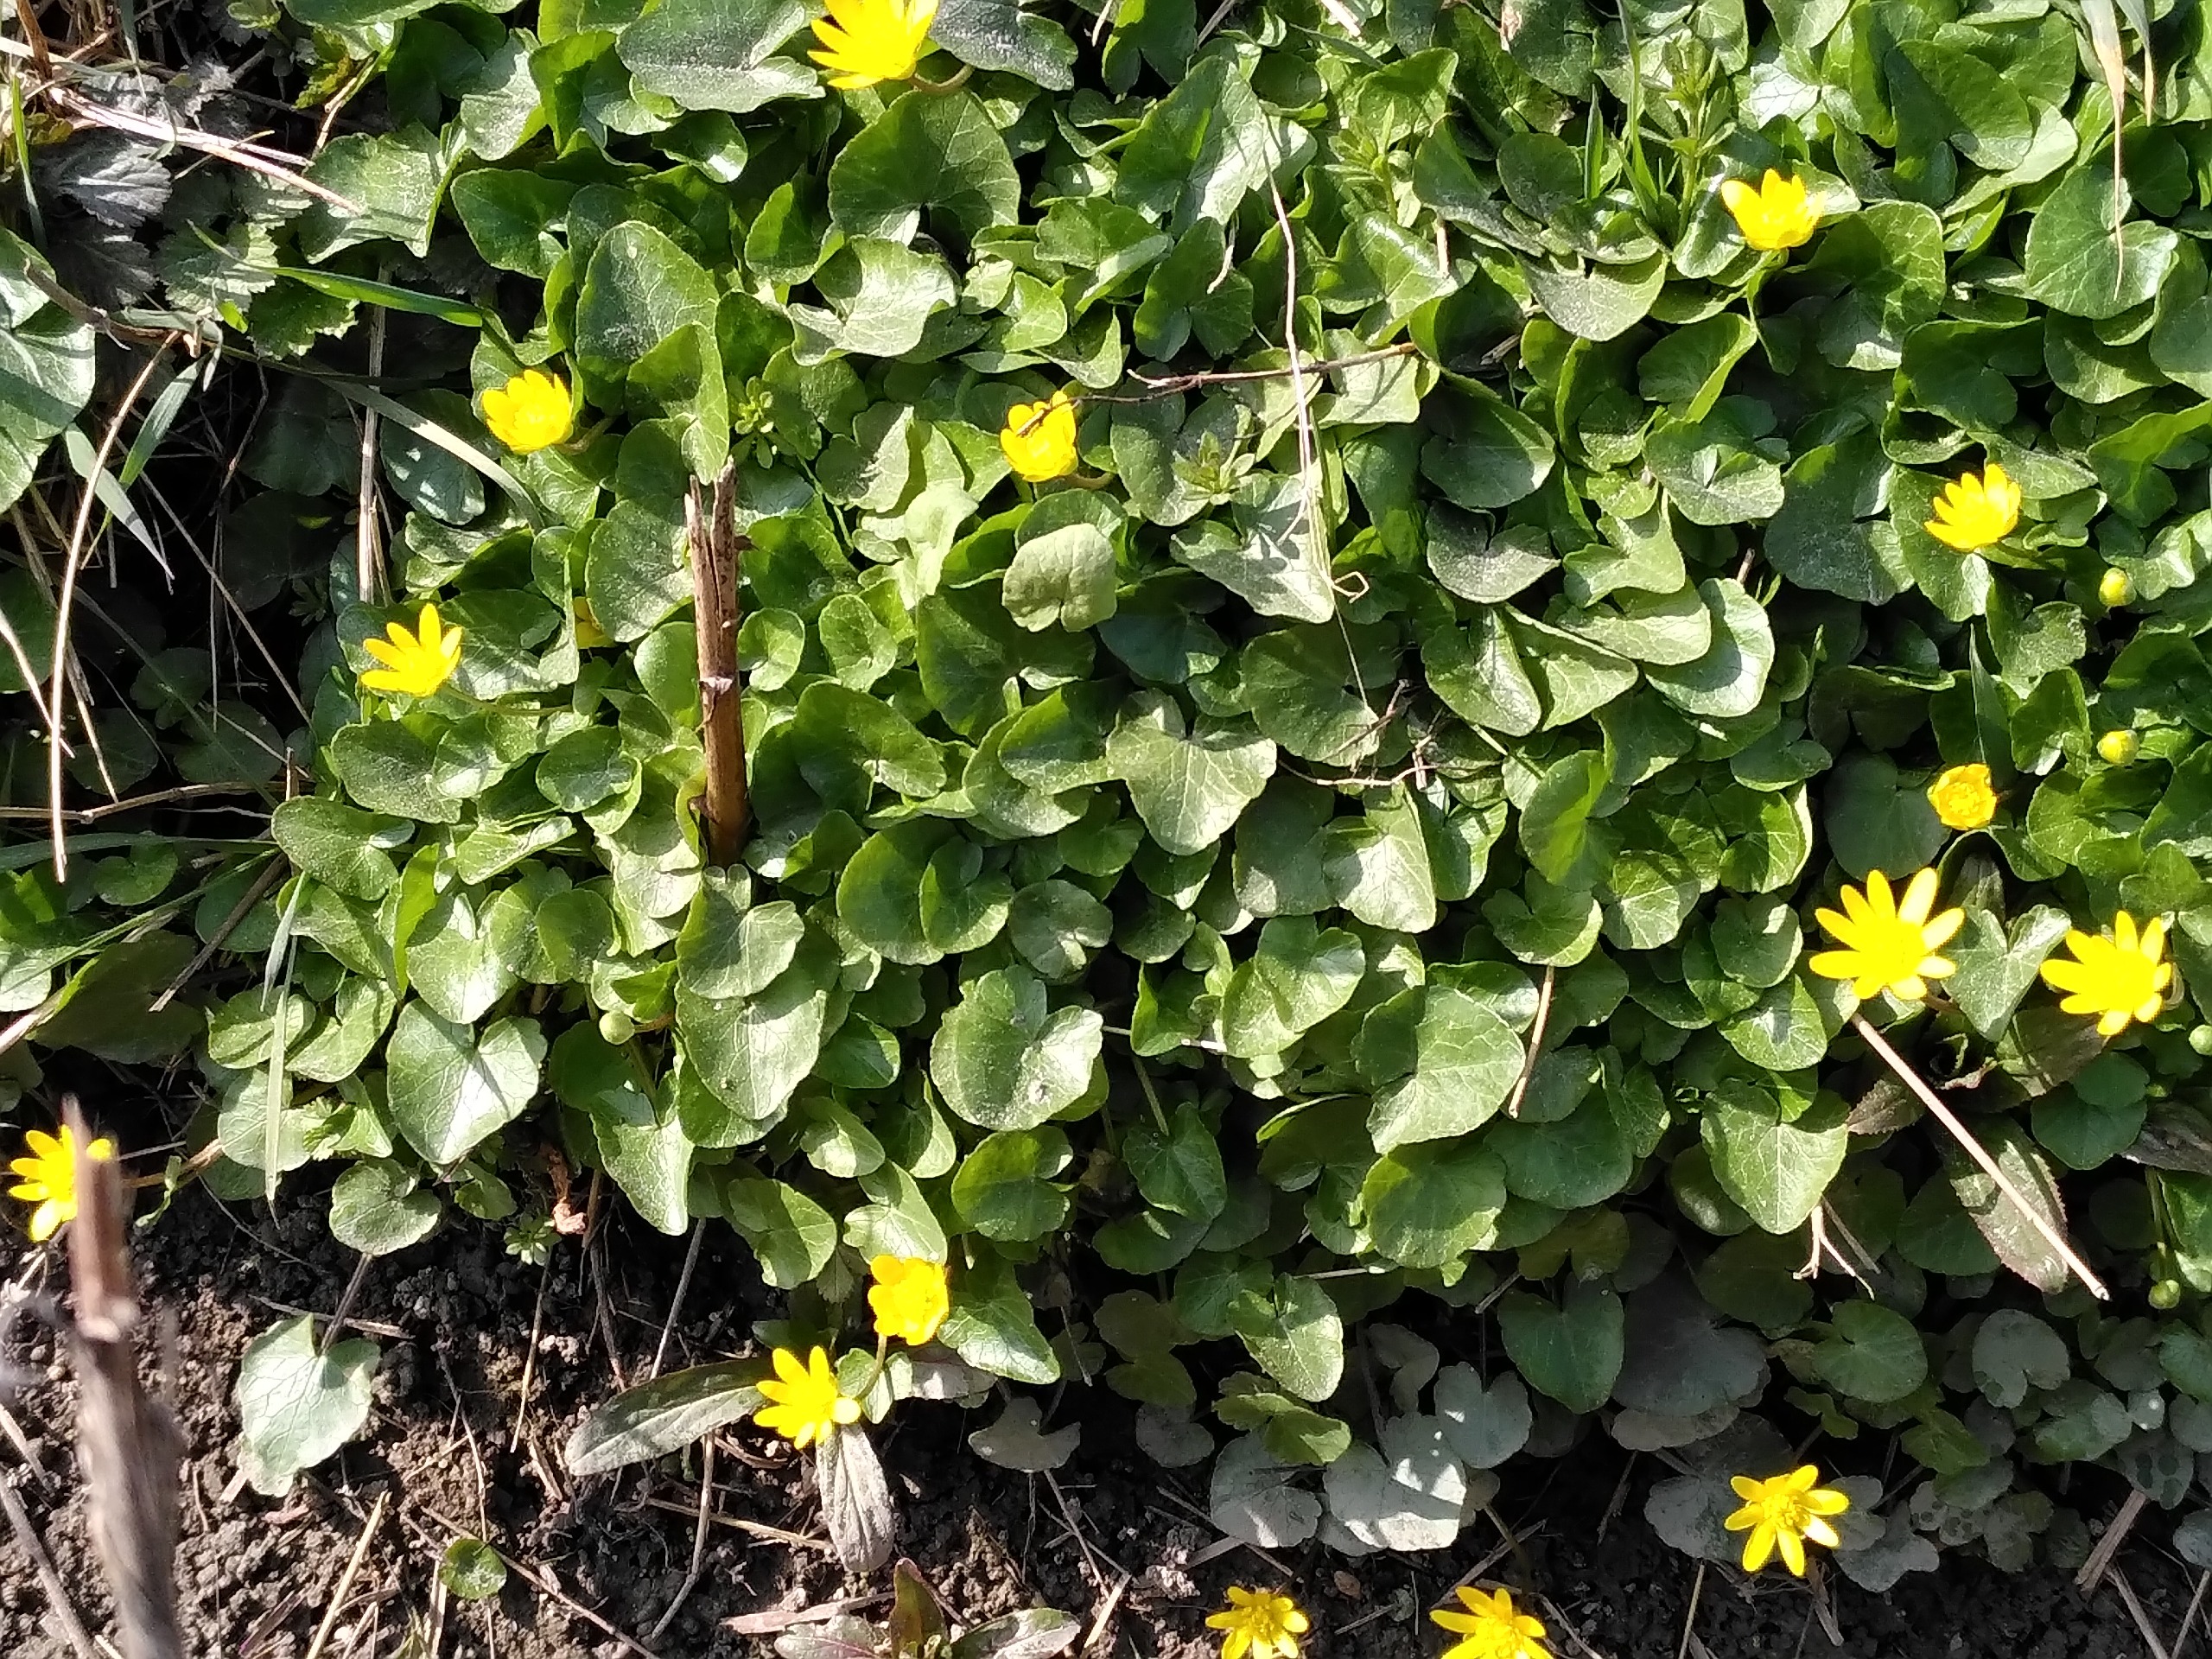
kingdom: Plantae
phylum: Tracheophyta
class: Magnoliopsida
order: Ranunculales
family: Ranunculaceae
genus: Ficaria
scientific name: Ficaria verna
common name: Vorterod
